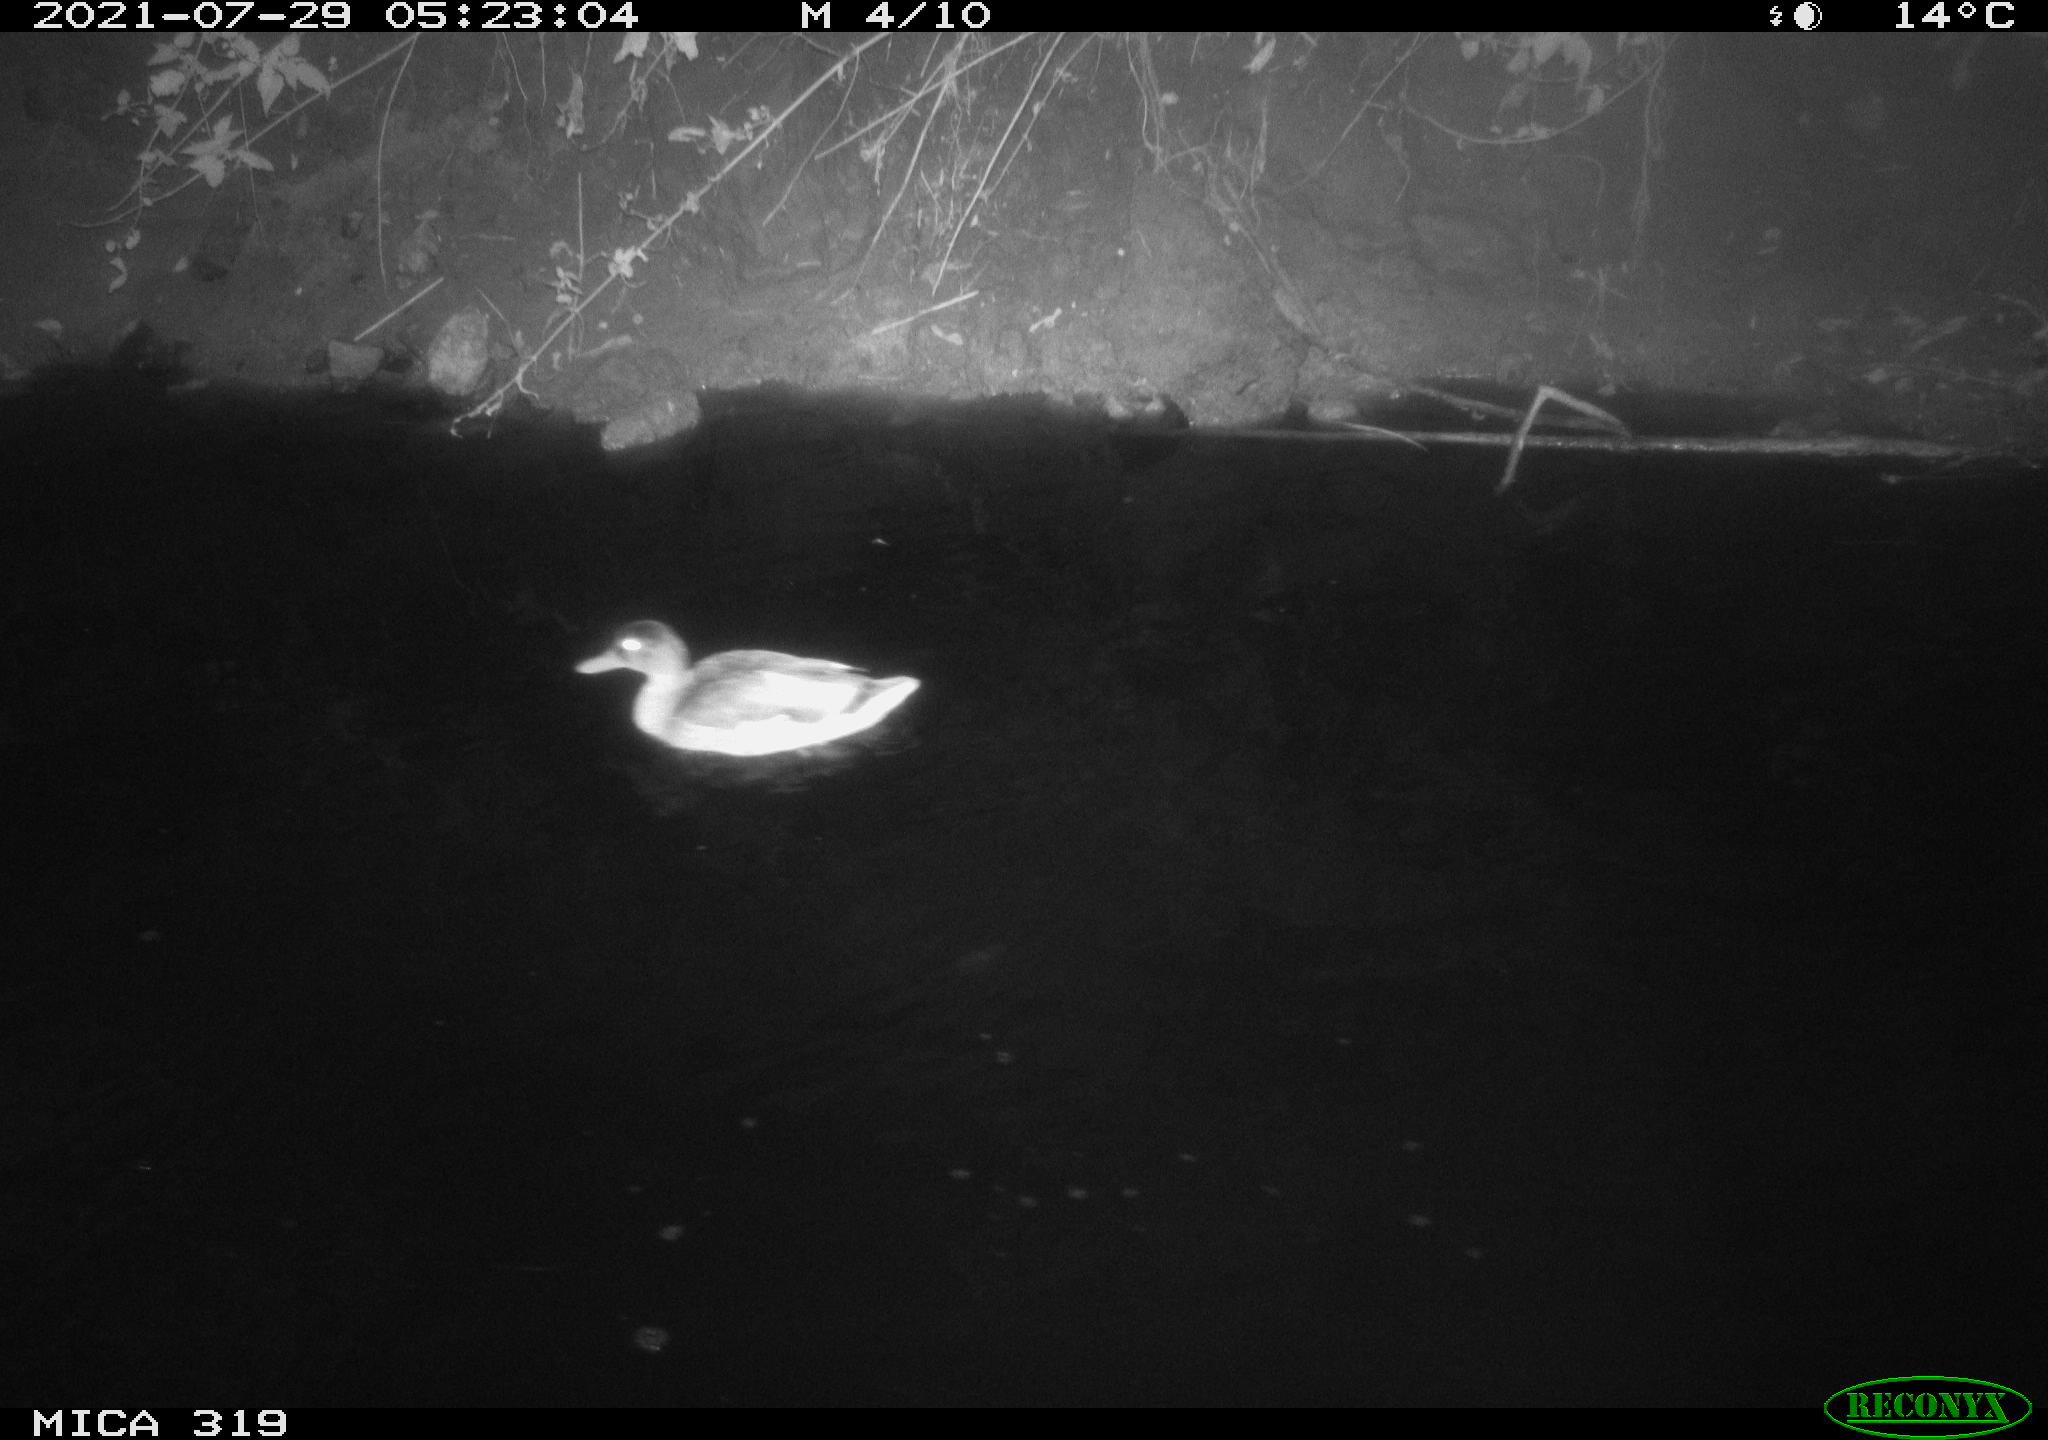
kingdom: Animalia
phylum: Chordata
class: Aves
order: Anseriformes
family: Anatidae
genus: Anas
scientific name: Anas platyrhynchos
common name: Mallard
